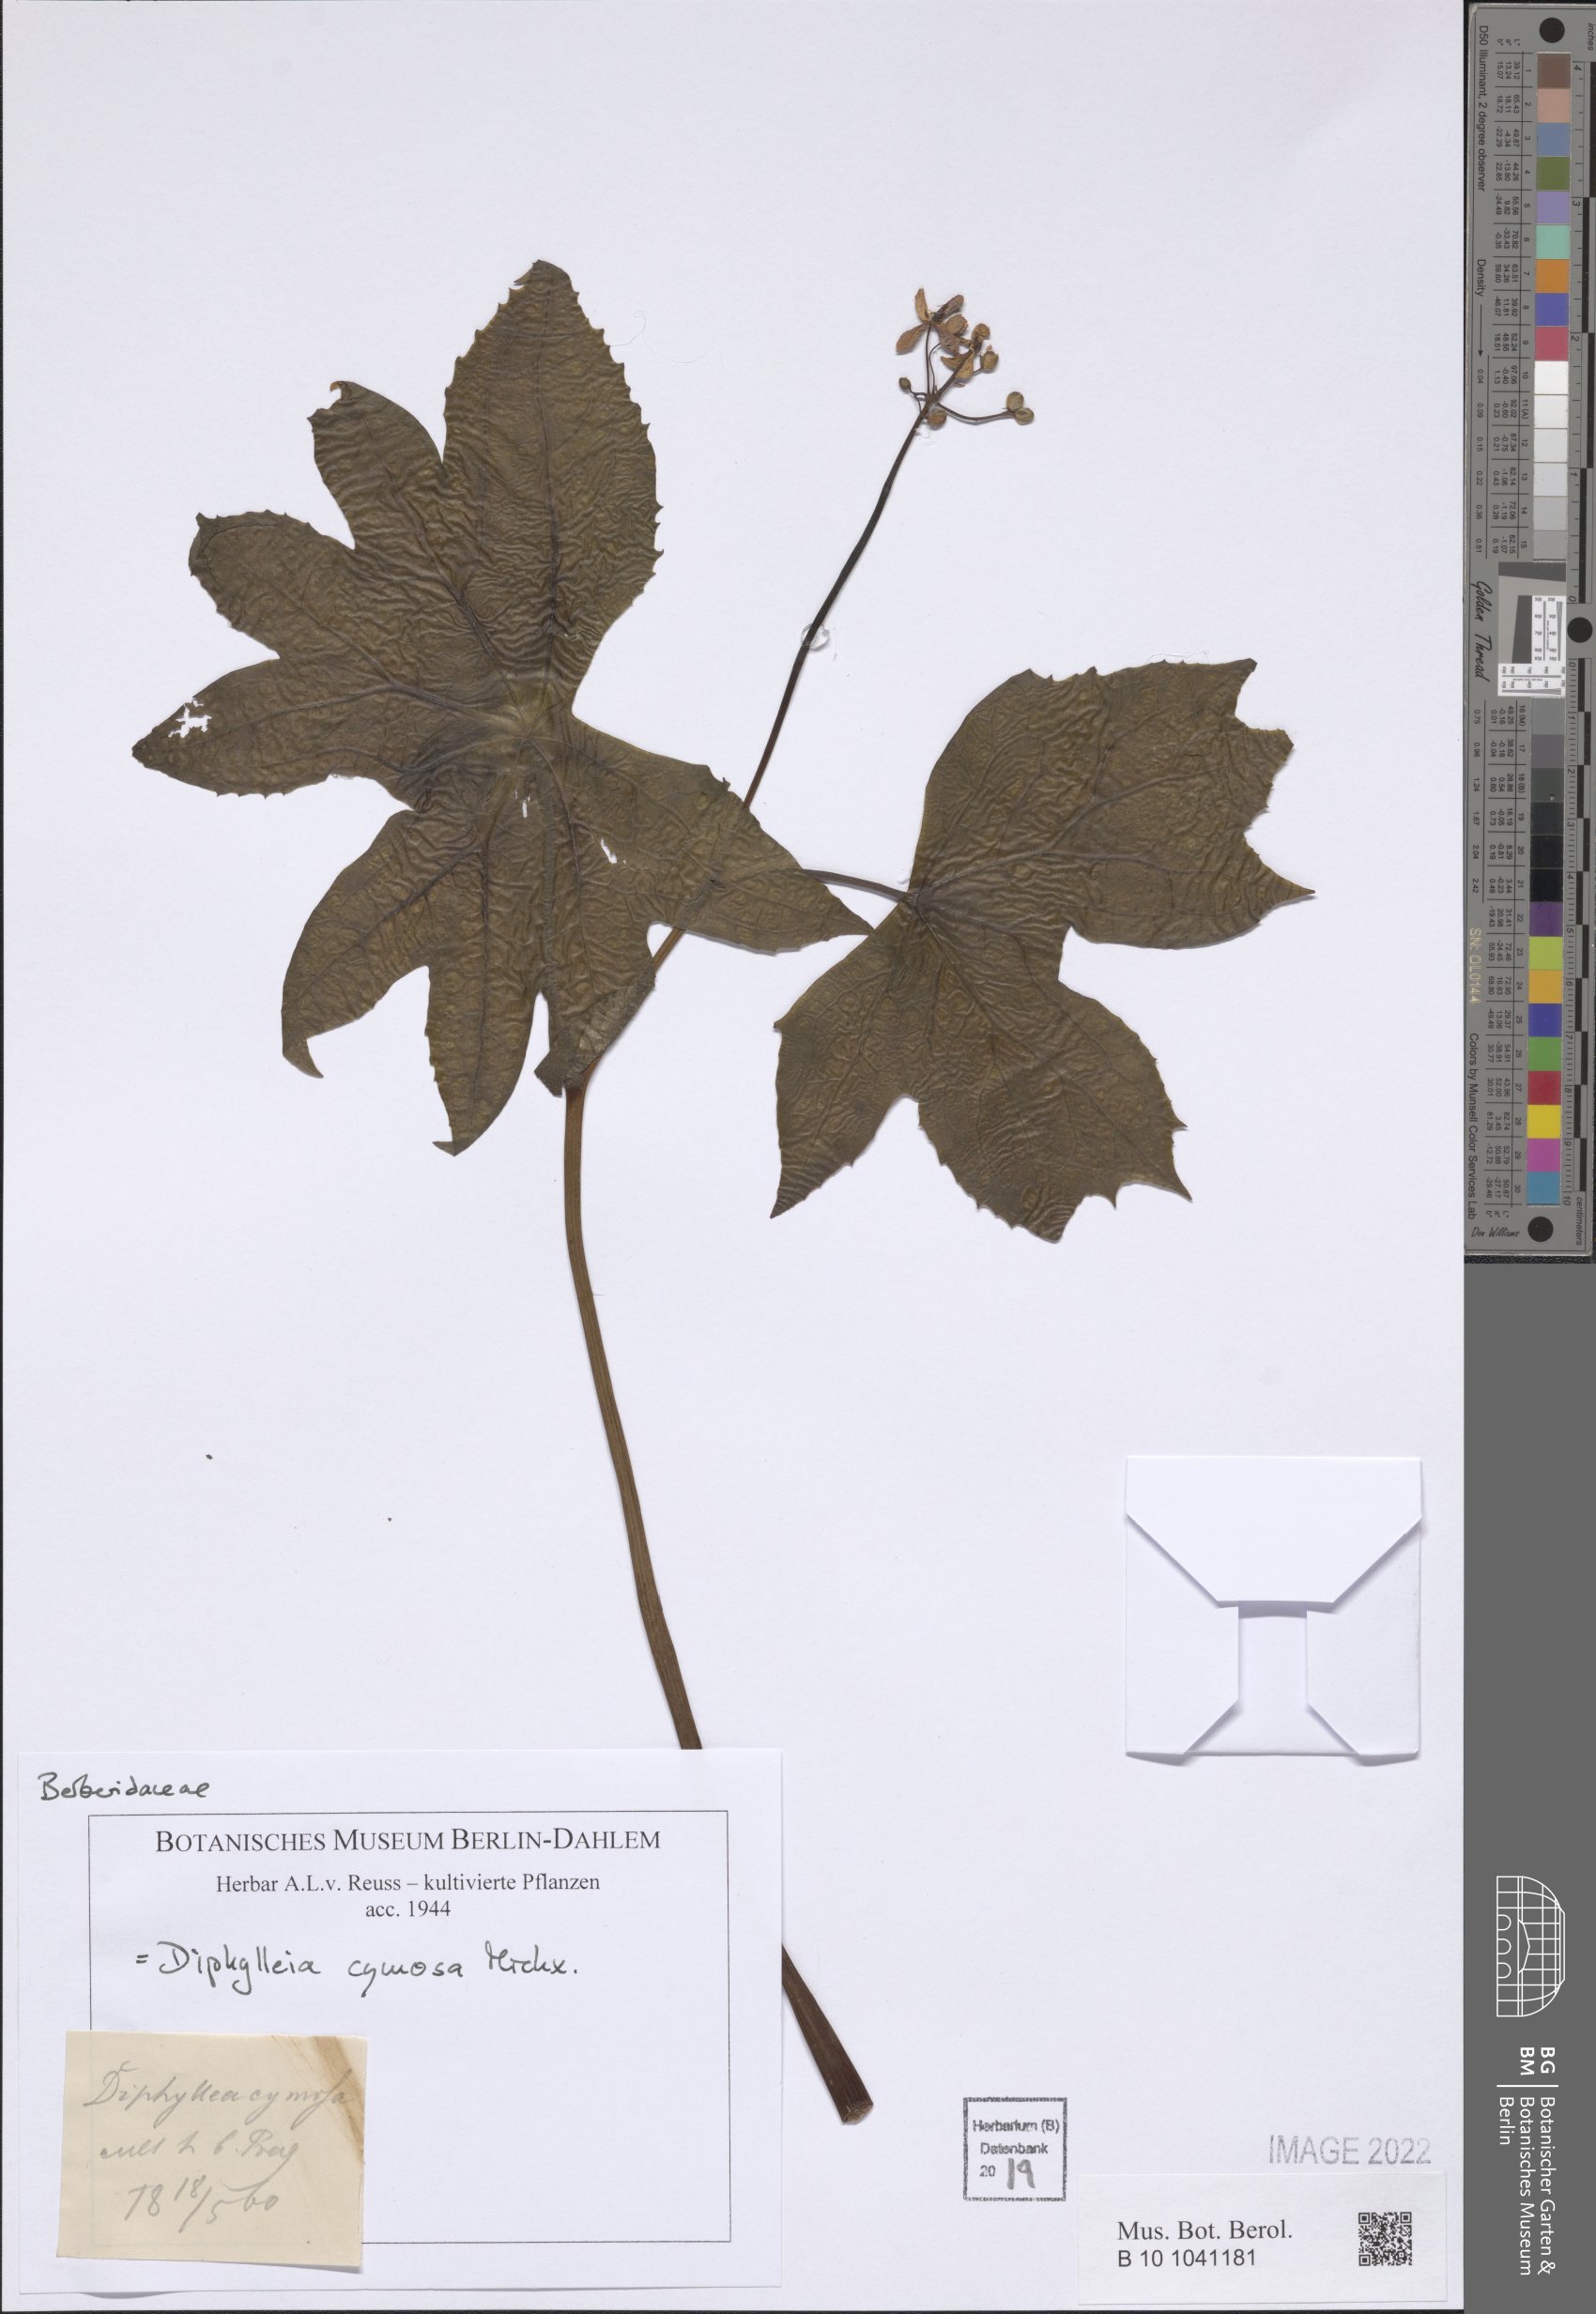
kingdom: Plantae
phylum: Tracheophyta
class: Magnoliopsida
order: Ranunculales
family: Berberidaceae
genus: Diphylleia
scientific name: Diphylleia cymosa
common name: Umbrella-leaf
